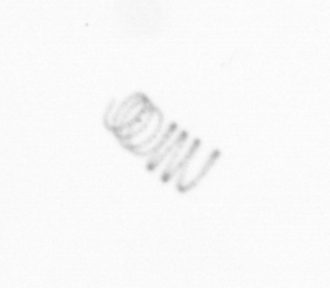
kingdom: Chromista
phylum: Ochrophyta
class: Bacillariophyceae
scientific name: Bacillariophyceae
